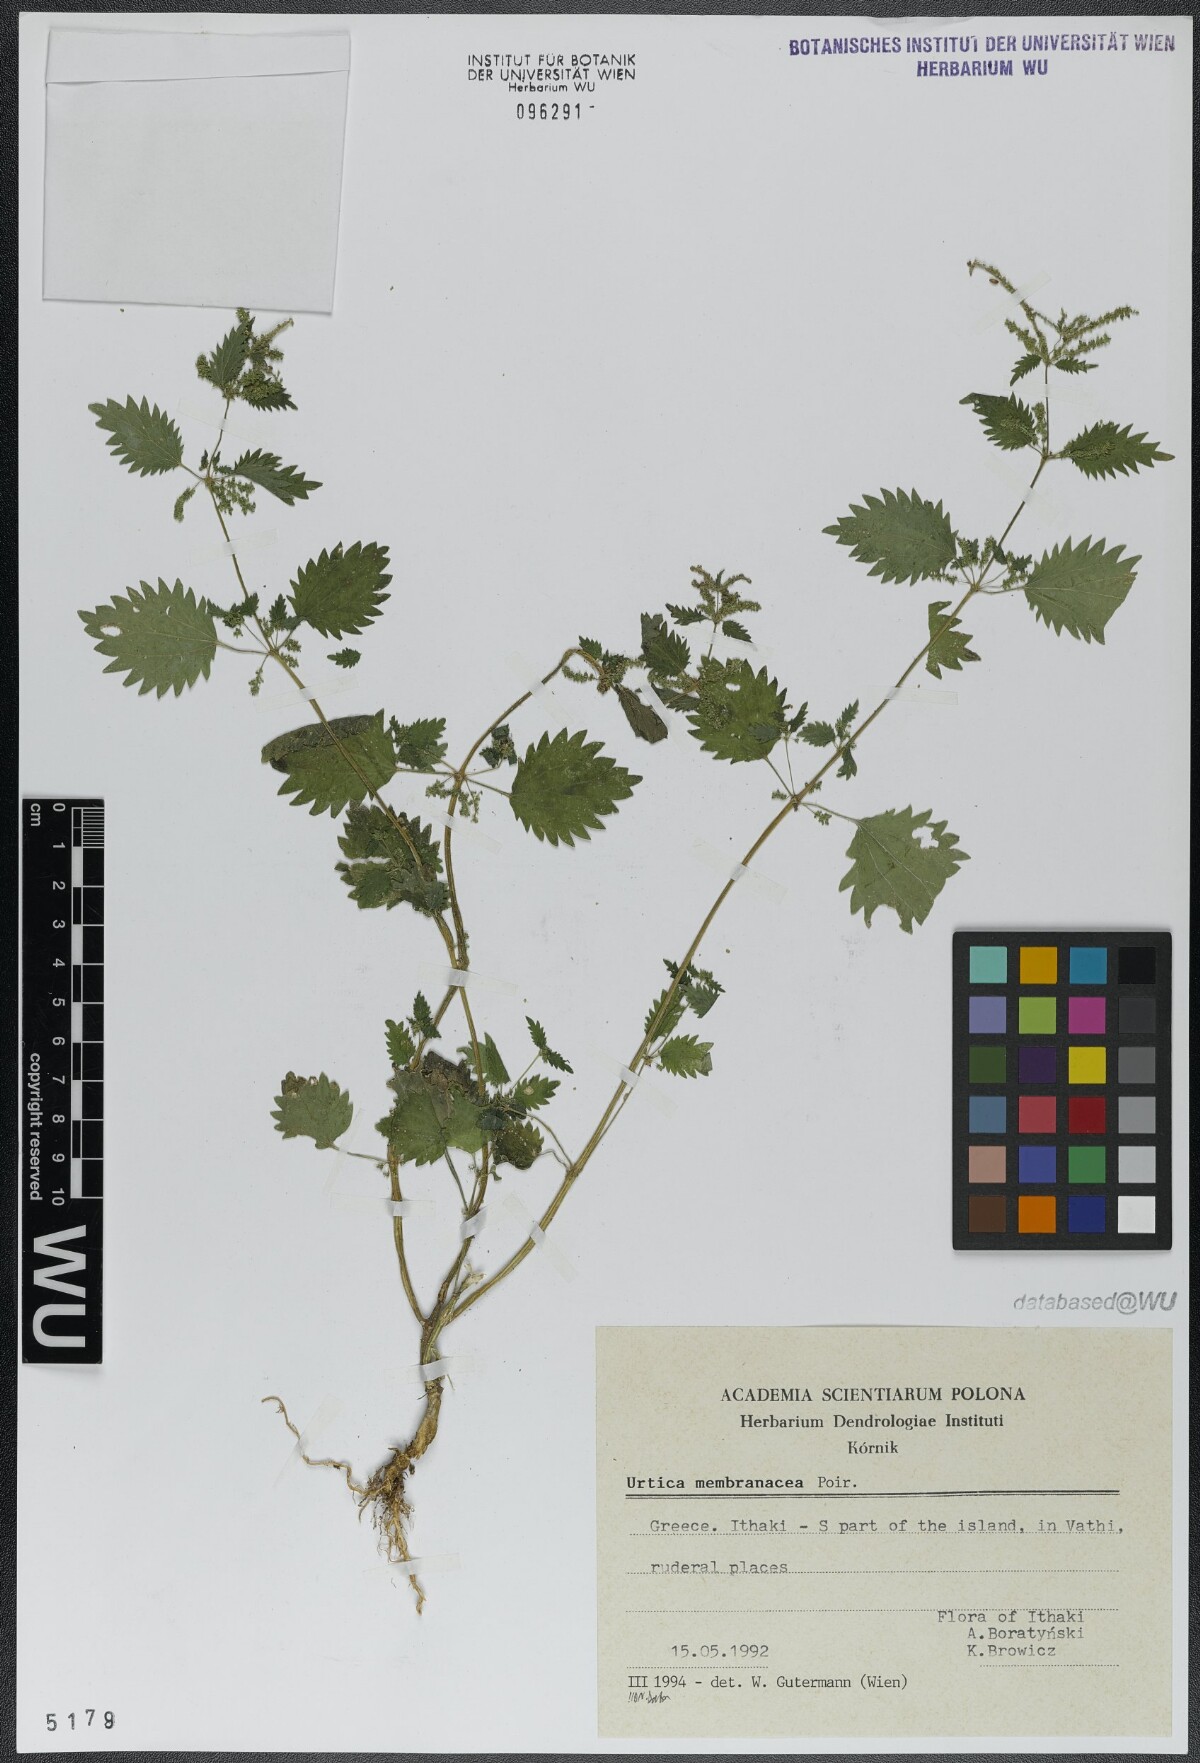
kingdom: Plantae
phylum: Tracheophyta
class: Magnoliopsida
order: Rosales
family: Urticaceae
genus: Urtica
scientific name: Urtica membranacea
